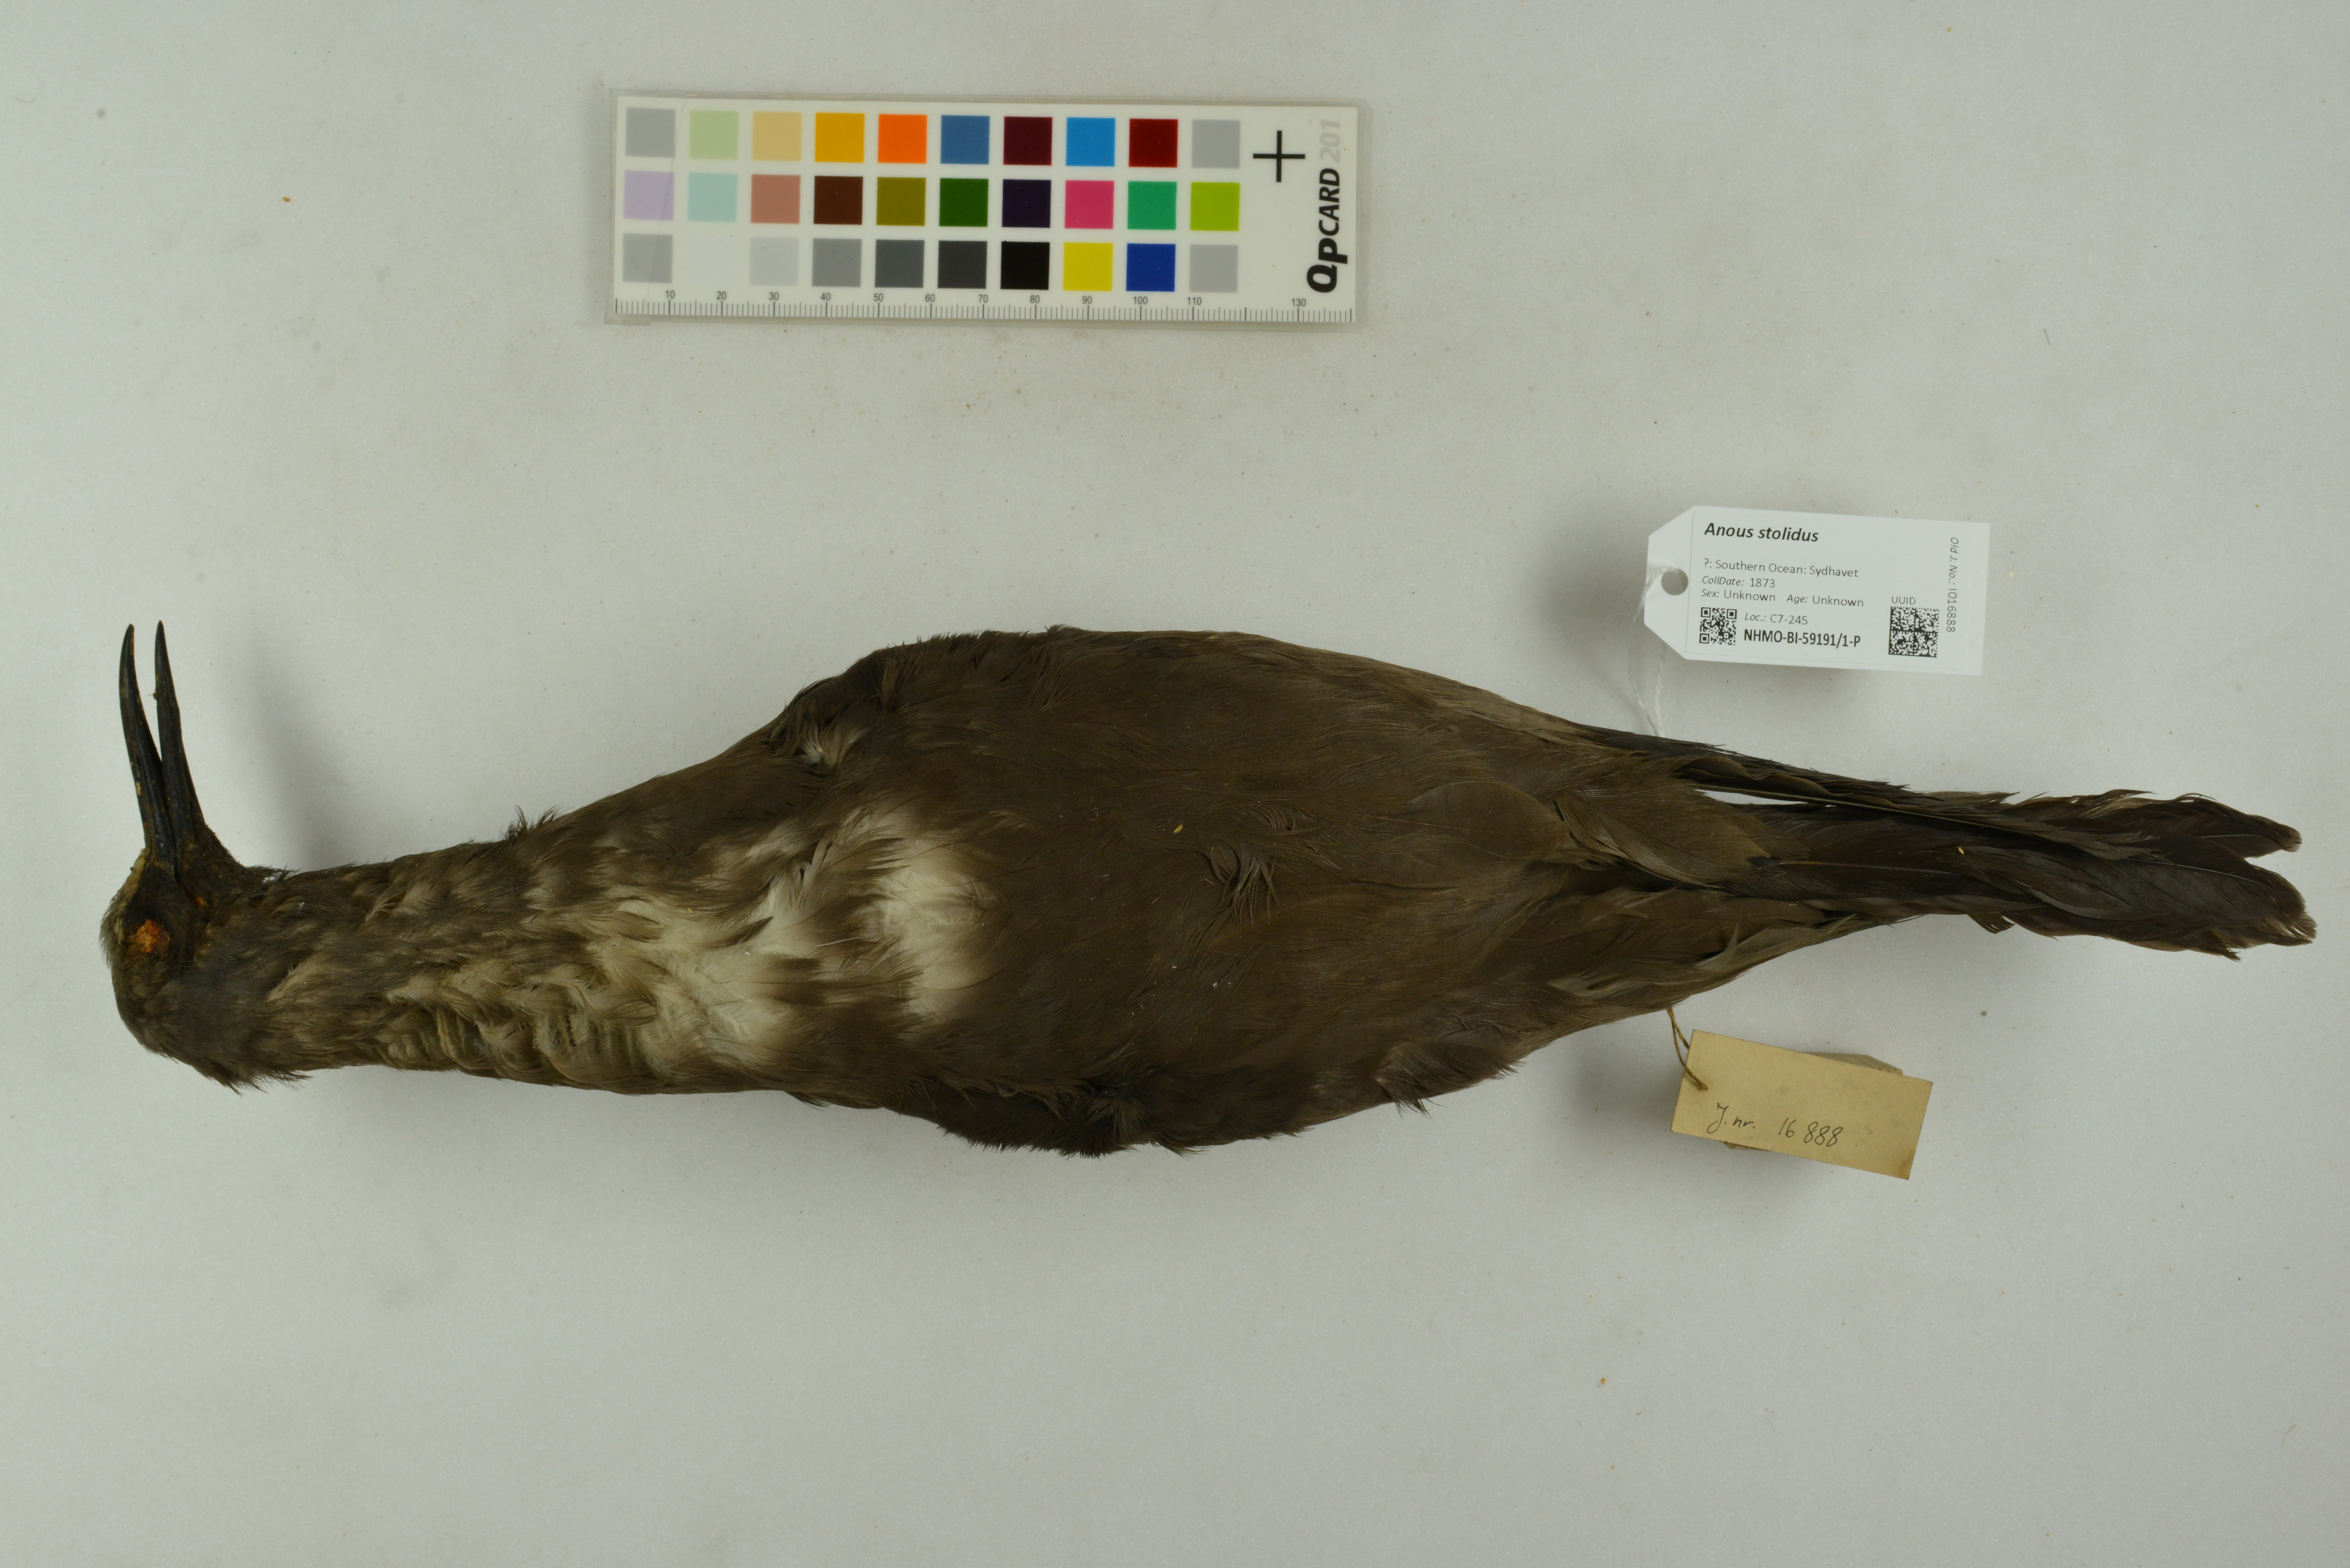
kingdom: Animalia
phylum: Chordata
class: Aves
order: Charadriiformes
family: Laridae
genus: Anous
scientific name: Anous stolidus
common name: Brown noddy
